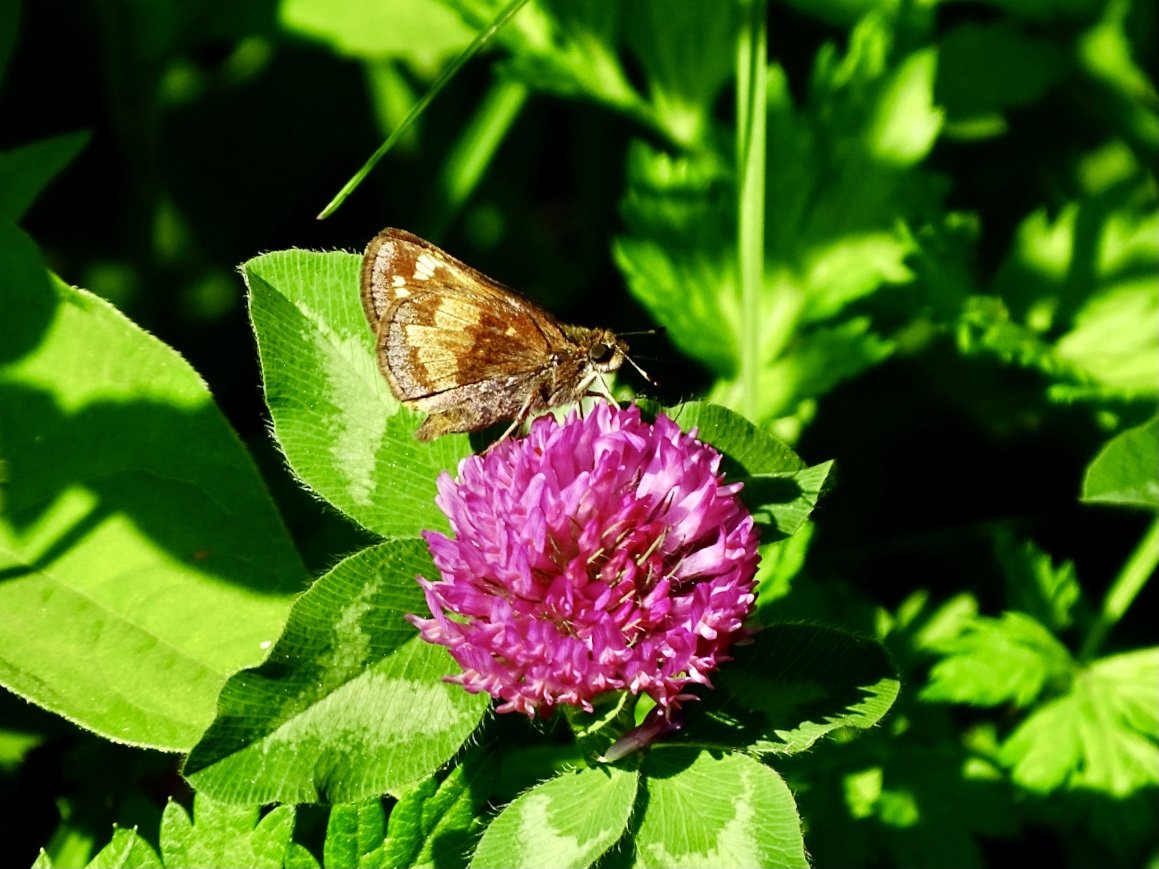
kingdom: Animalia
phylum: Arthropoda
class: Insecta
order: Lepidoptera
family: Hesperiidae
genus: Lon
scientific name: Lon hobomok
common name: Hobomok Skipper
